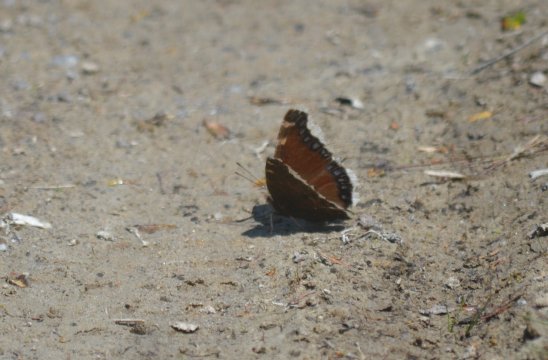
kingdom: Animalia
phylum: Arthropoda
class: Insecta
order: Lepidoptera
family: Nymphalidae
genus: Nymphalis
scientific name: Nymphalis antiopa
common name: Mourning Cloak
